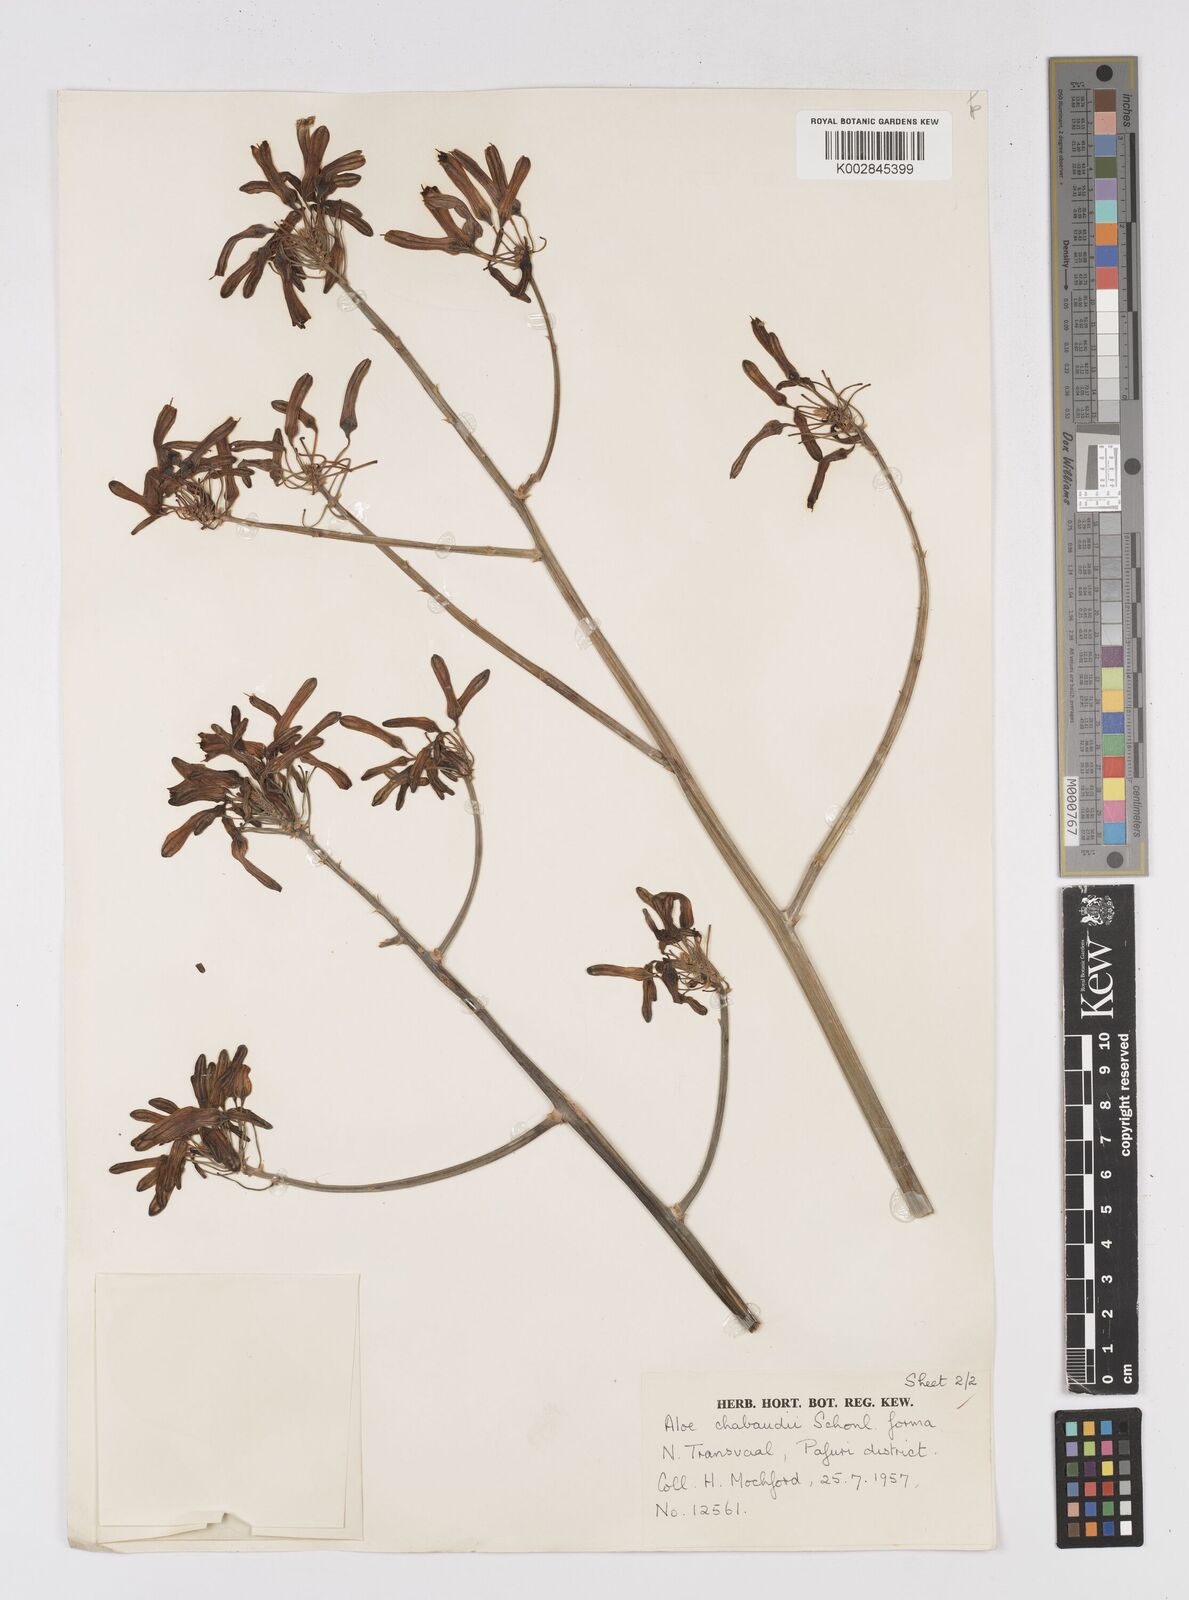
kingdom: Plantae
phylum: Tracheophyta
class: Liliopsida
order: Asparagales
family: Asphodelaceae
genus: Aloe
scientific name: Aloe chabaudii
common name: Chabaud's aloe
